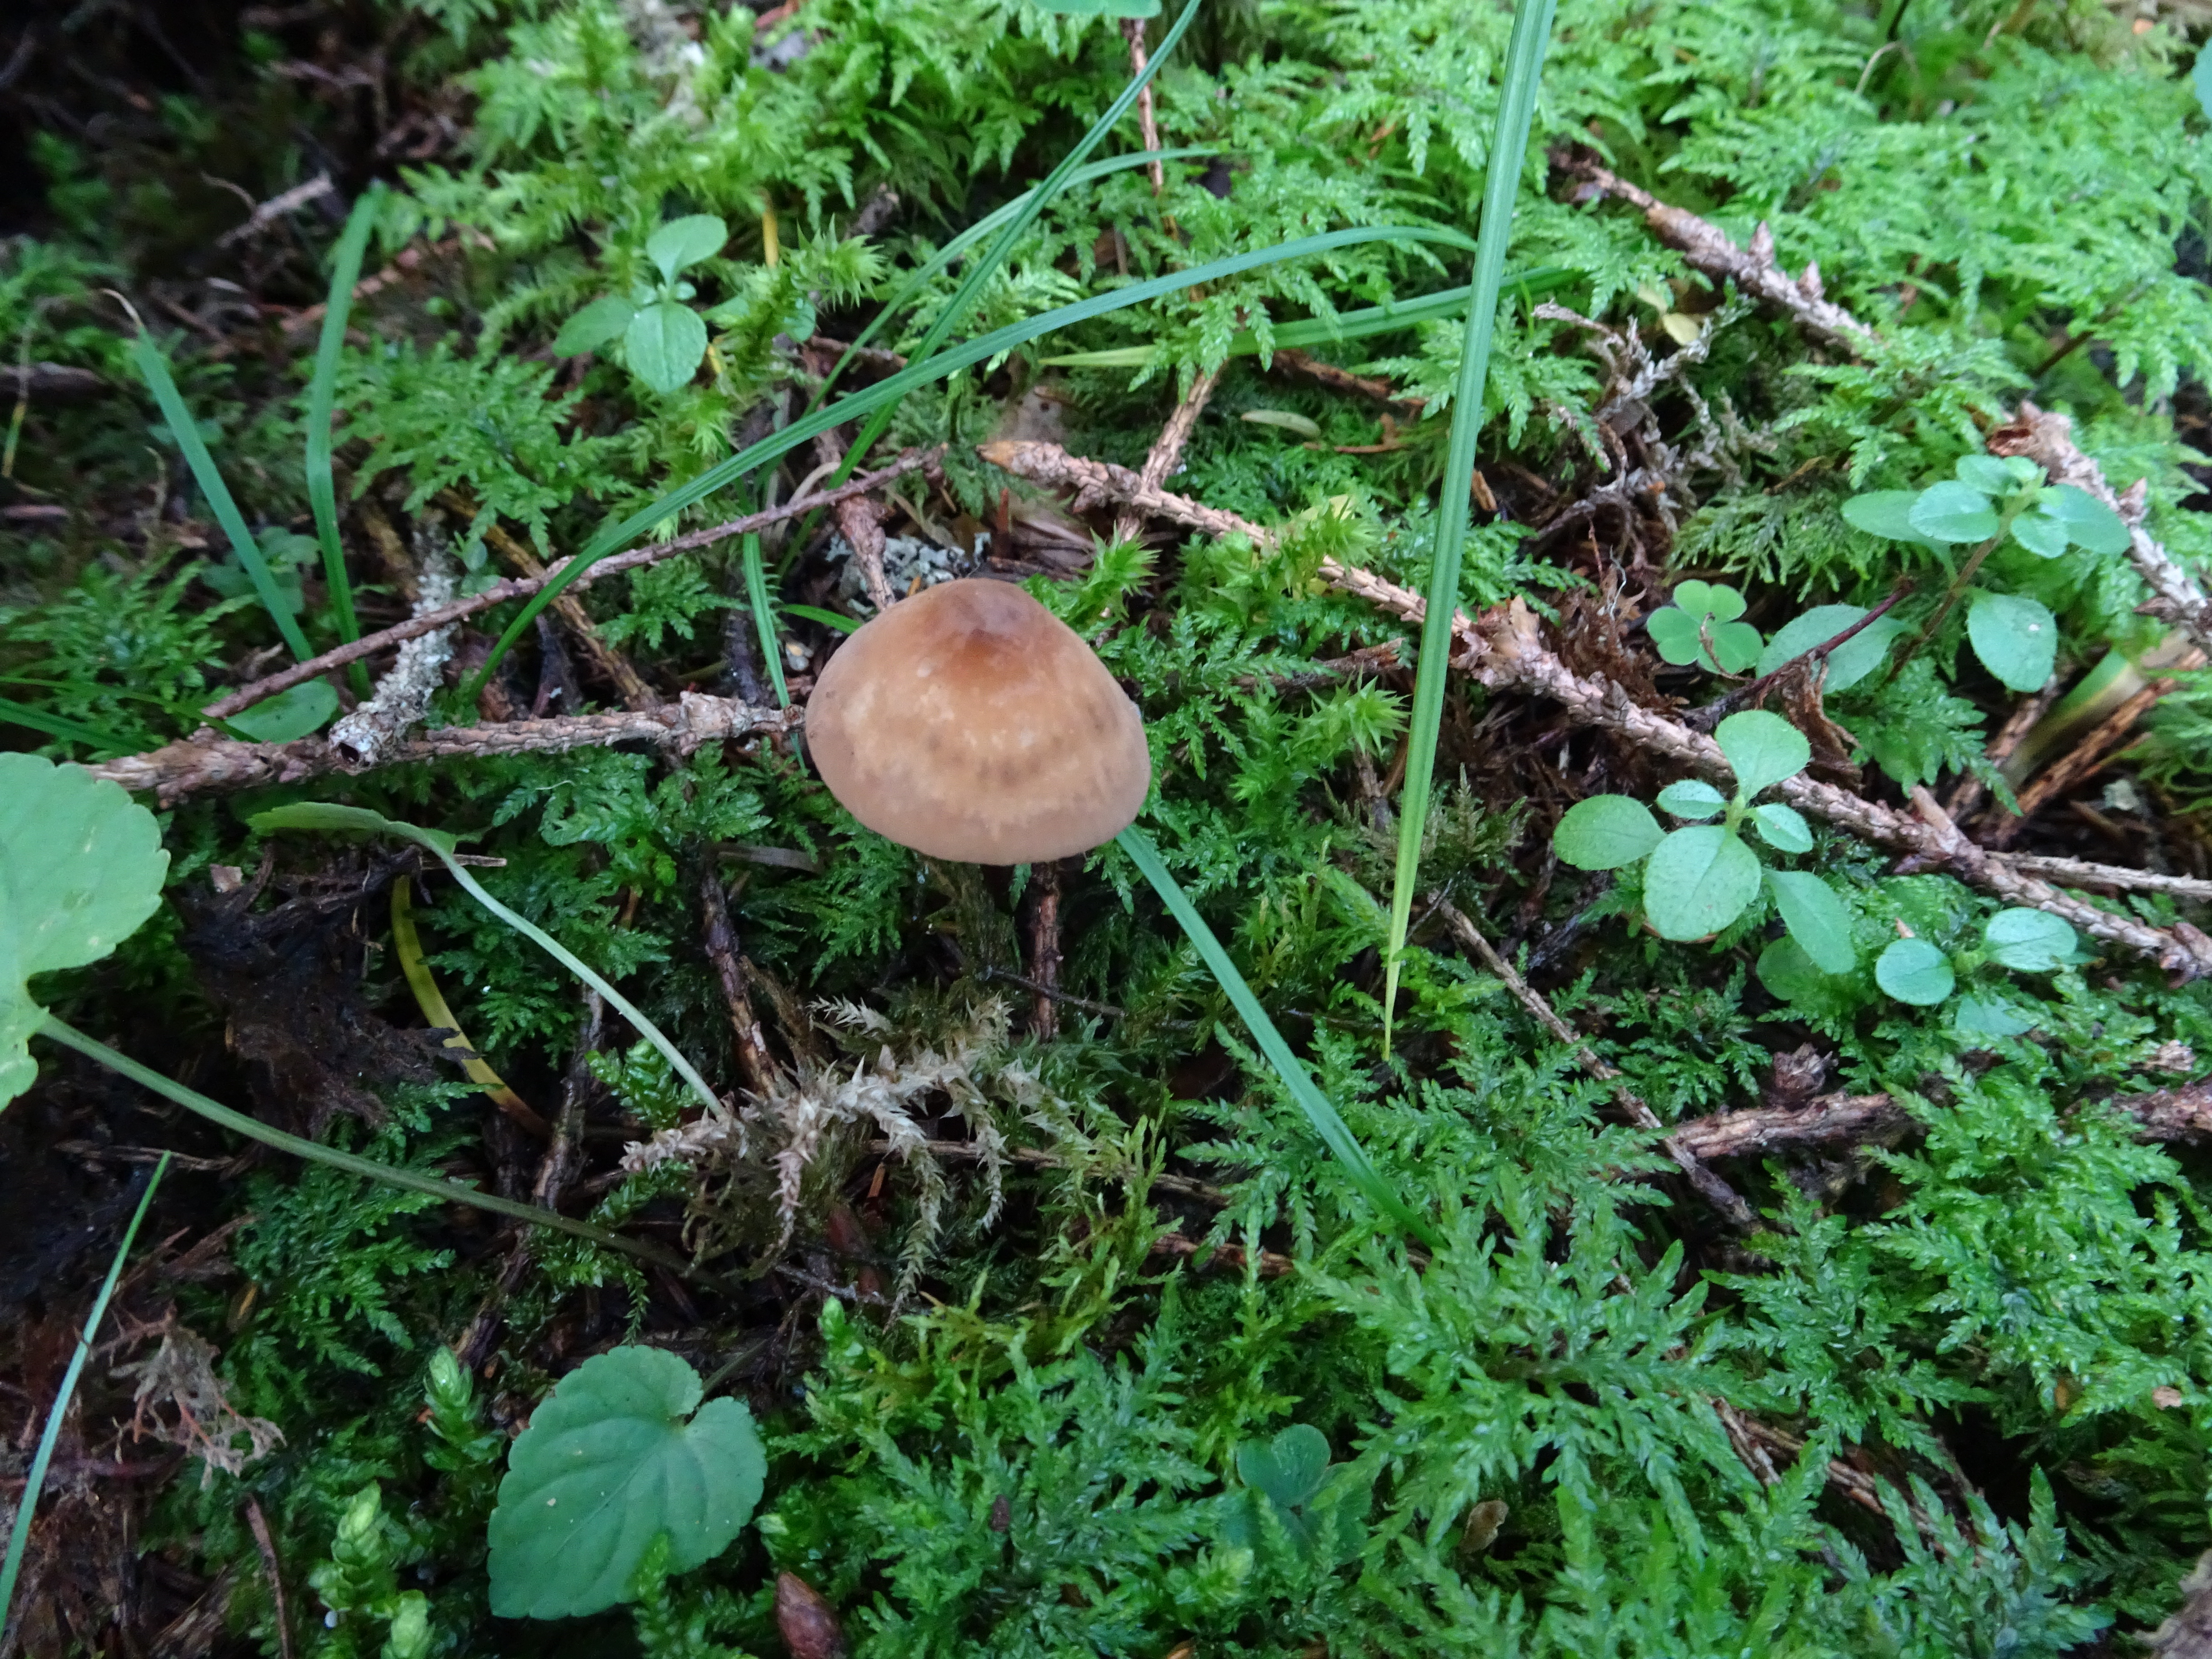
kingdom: Fungi
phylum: Basidiomycota
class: Agaricomycetes
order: Agaricales
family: Marasmiaceae
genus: Marasmius
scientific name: Marasmius cohaerens
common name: Bristled parachute
